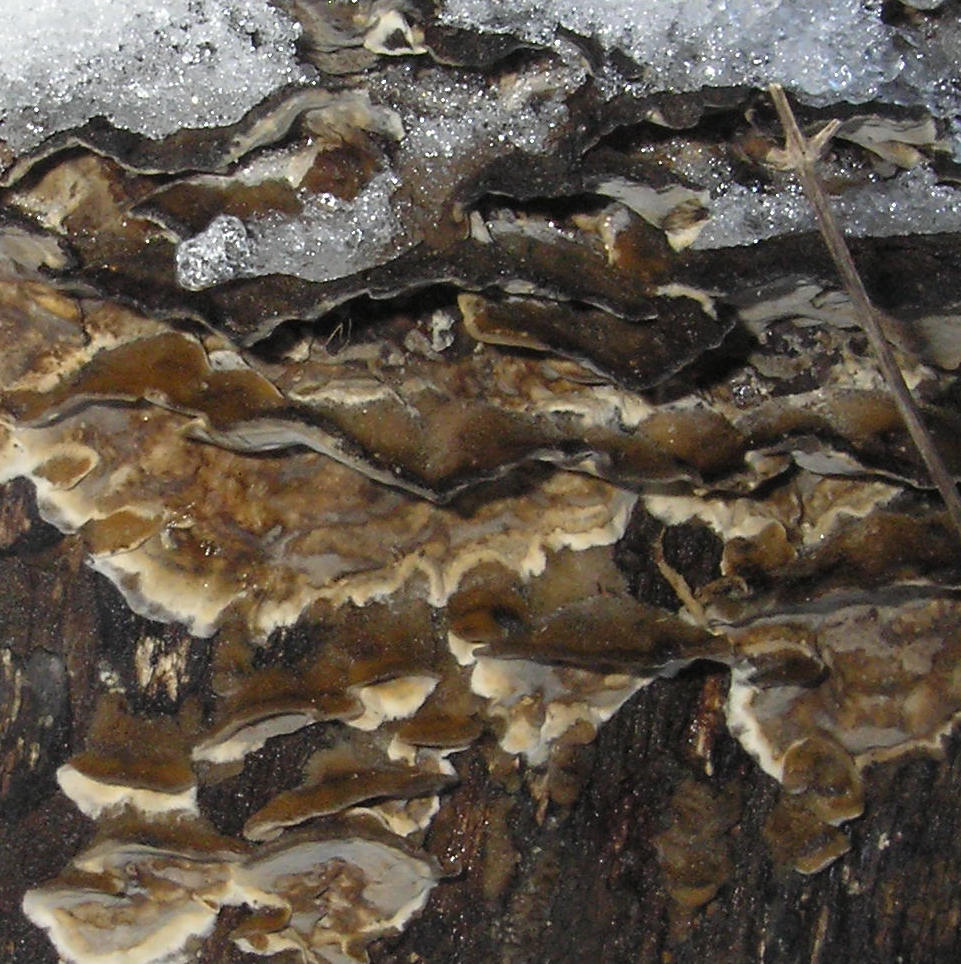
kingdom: Fungi
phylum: Basidiomycota
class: Agaricomycetes
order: Polyporales
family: Phanerochaetaceae
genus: Bjerkandera
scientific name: Bjerkandera adusta
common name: sveden sodporesvamp
